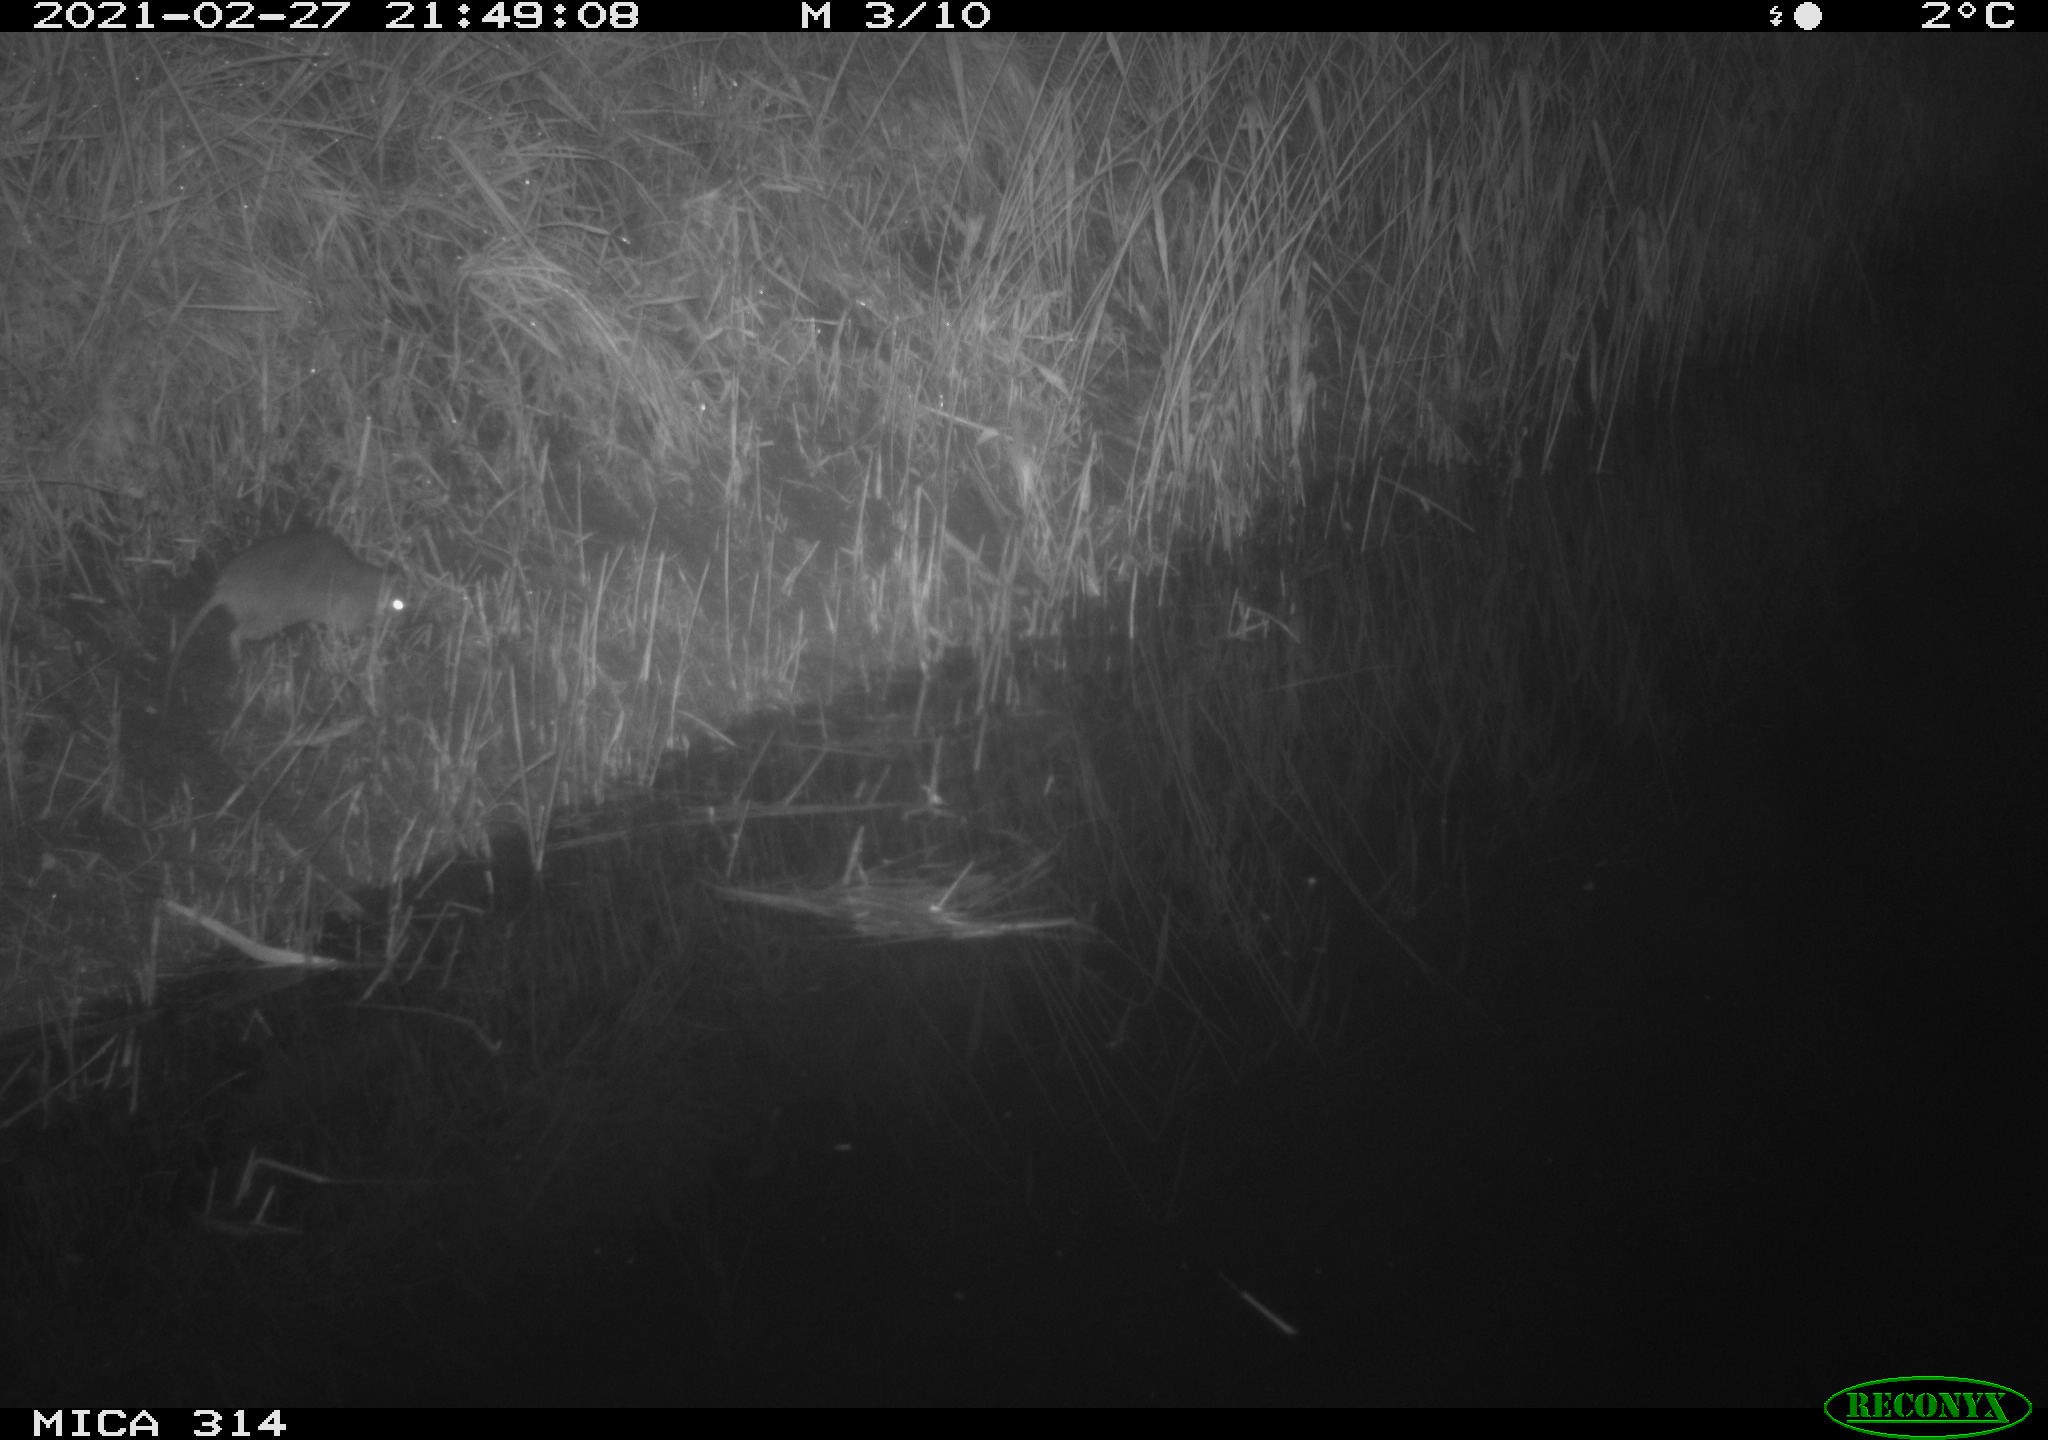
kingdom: Animalia
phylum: Chordata
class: Mammalia
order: Rodentia
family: Muridae
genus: Rattus
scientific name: Rattus norvegicus
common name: Brown rat
